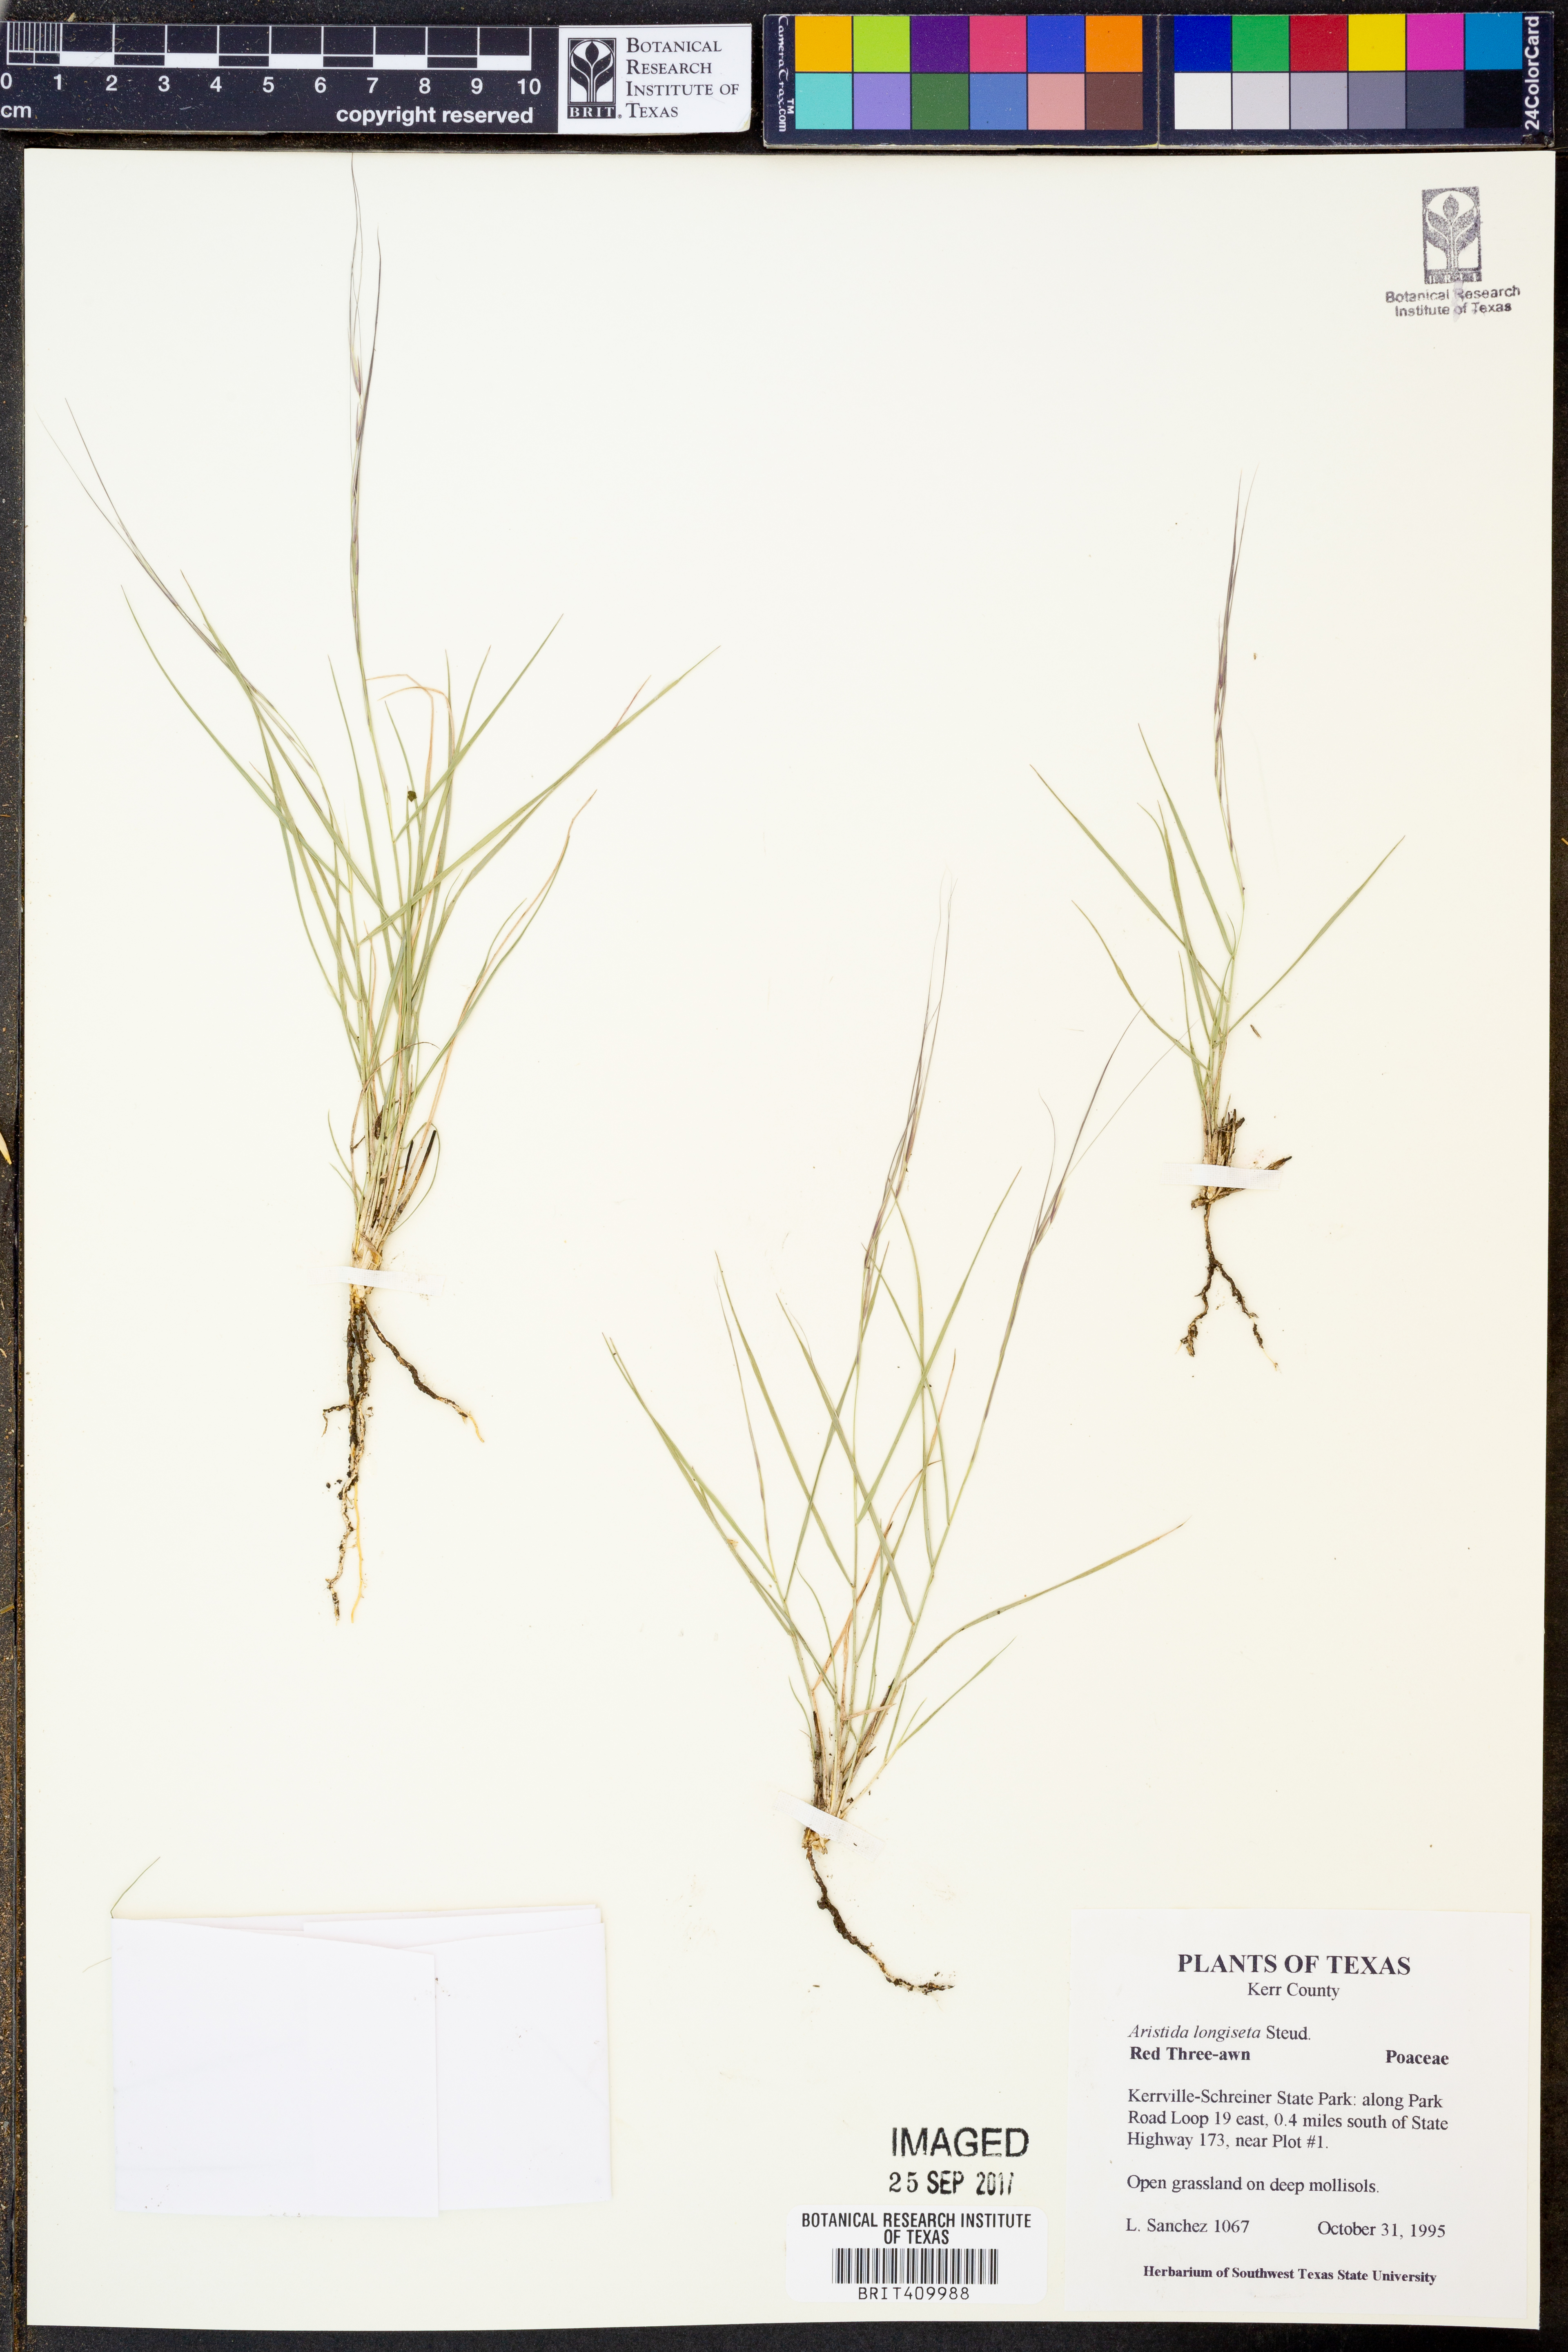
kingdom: Plantae
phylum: Tracheophyta
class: Liliopsida
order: Poales
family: Poaceae
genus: Aristida
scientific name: Aristida longiseta
